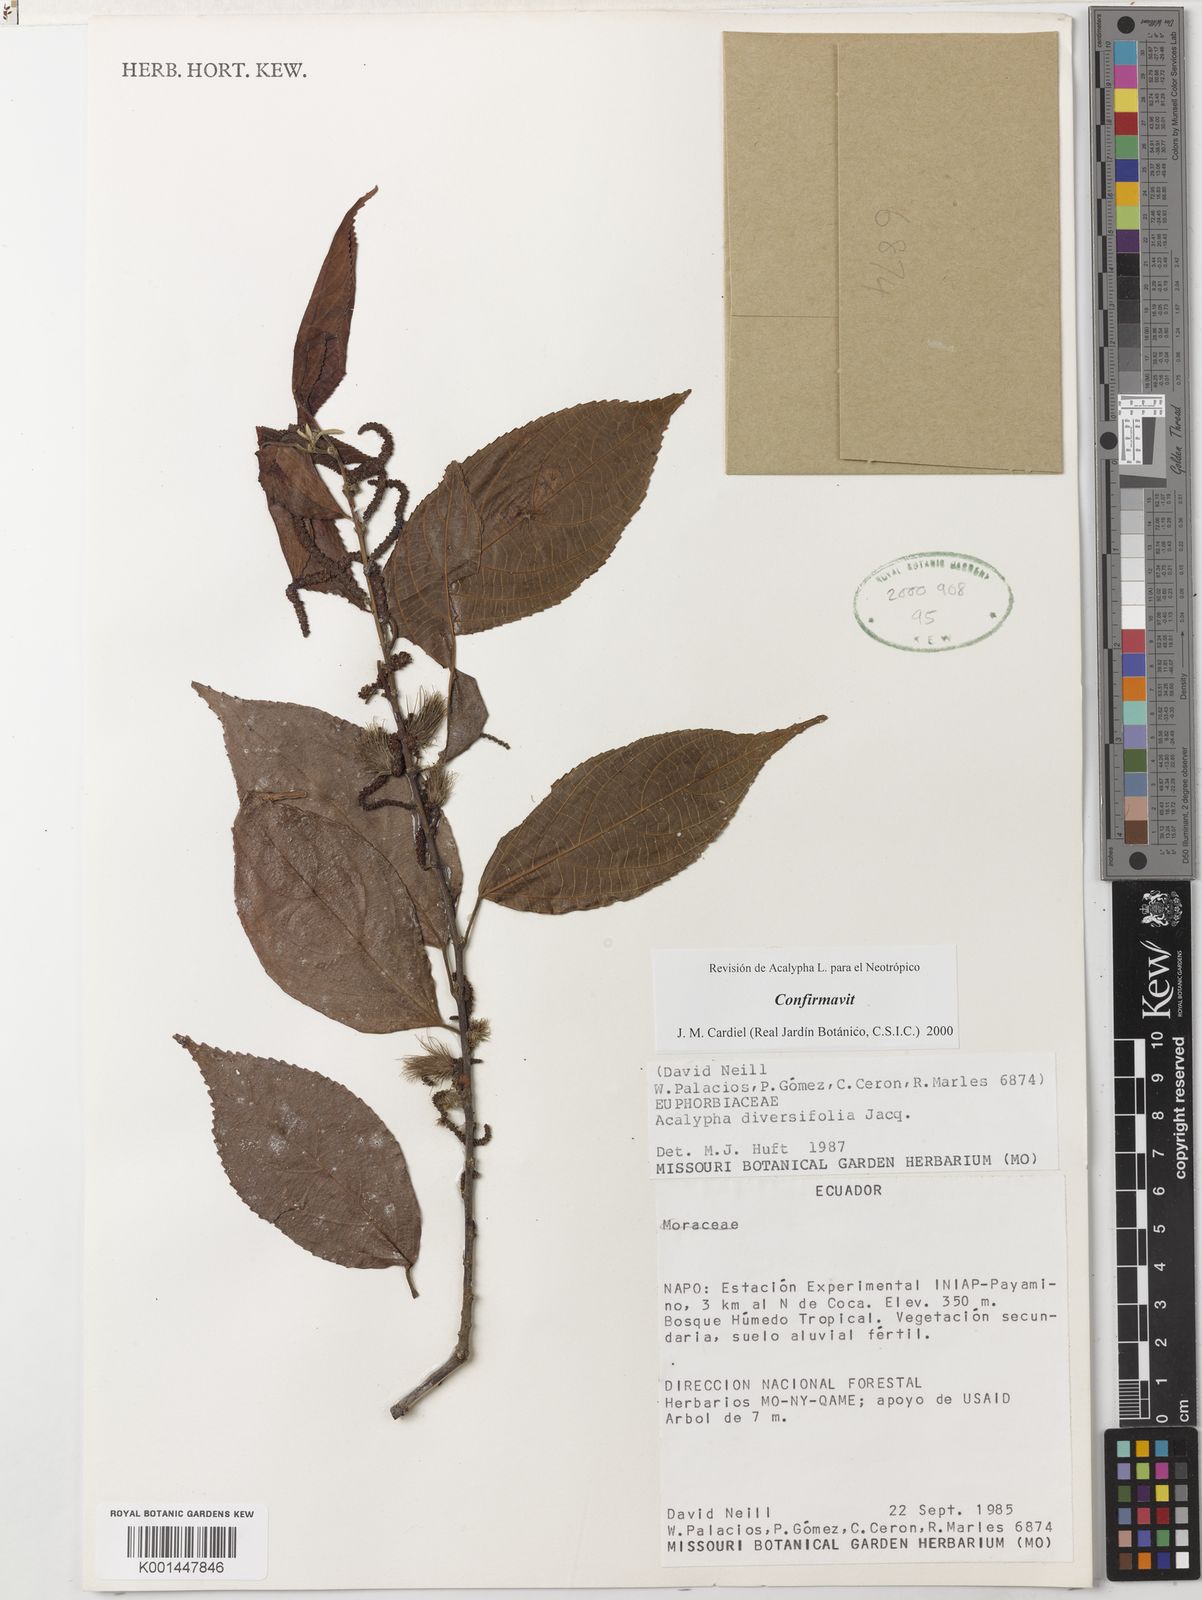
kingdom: Plantae
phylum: Tracheophyta
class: Magnoliopsida
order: Malpighiales
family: Euphorbiaceae
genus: Acalypha
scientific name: Acalypha diversifolia
